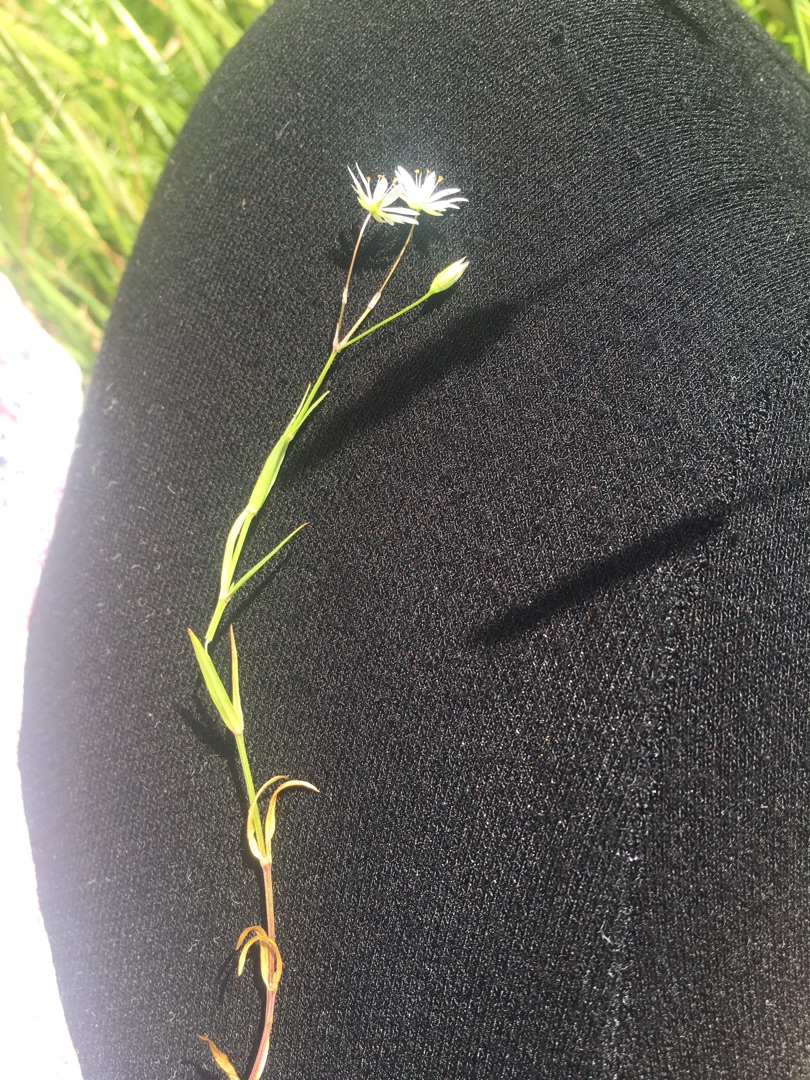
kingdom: Plantae
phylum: Tracheophyta
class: Magnoliopsida
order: Caryophyllales
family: Caryophyllaceae
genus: Stellaria
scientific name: Stellaria graminea
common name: Græsbladet fladstjerne
